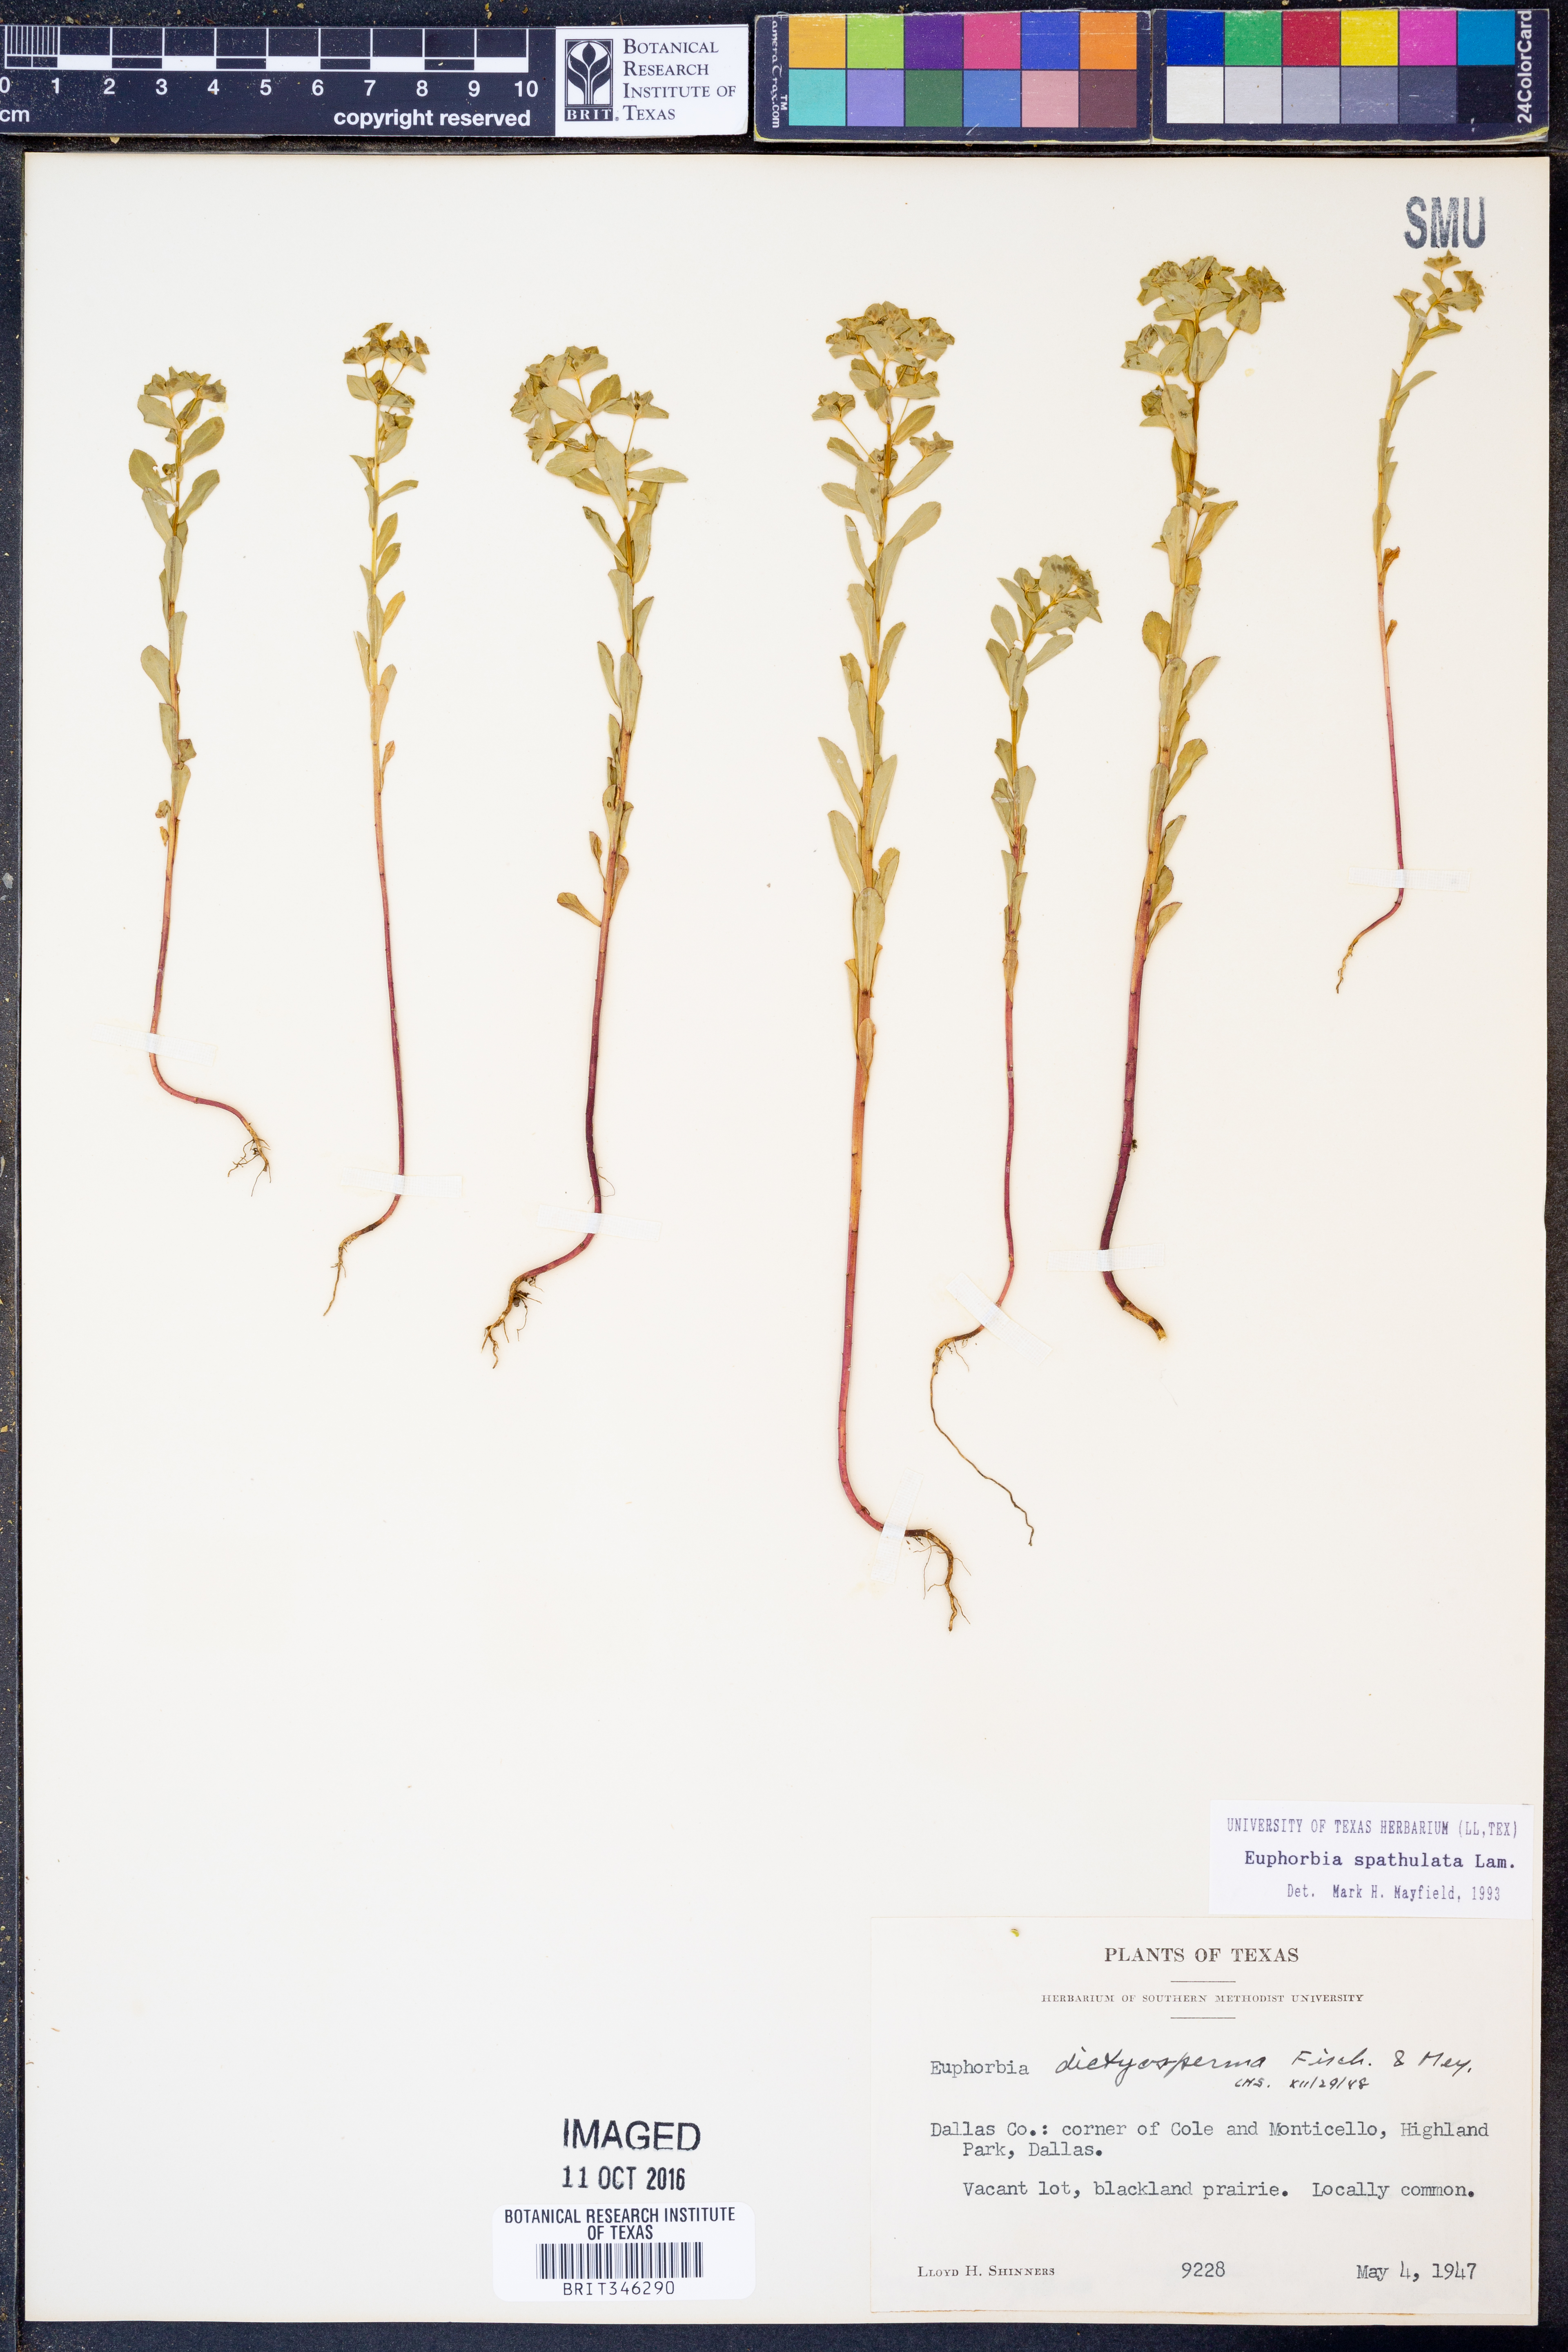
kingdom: Plantae
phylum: Tracheophyta
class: Magnoliopsida
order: Malpighiales
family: Euphorbiaceae
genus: Euphorbia
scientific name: Euphorbia spathulata
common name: Blunt spurge
